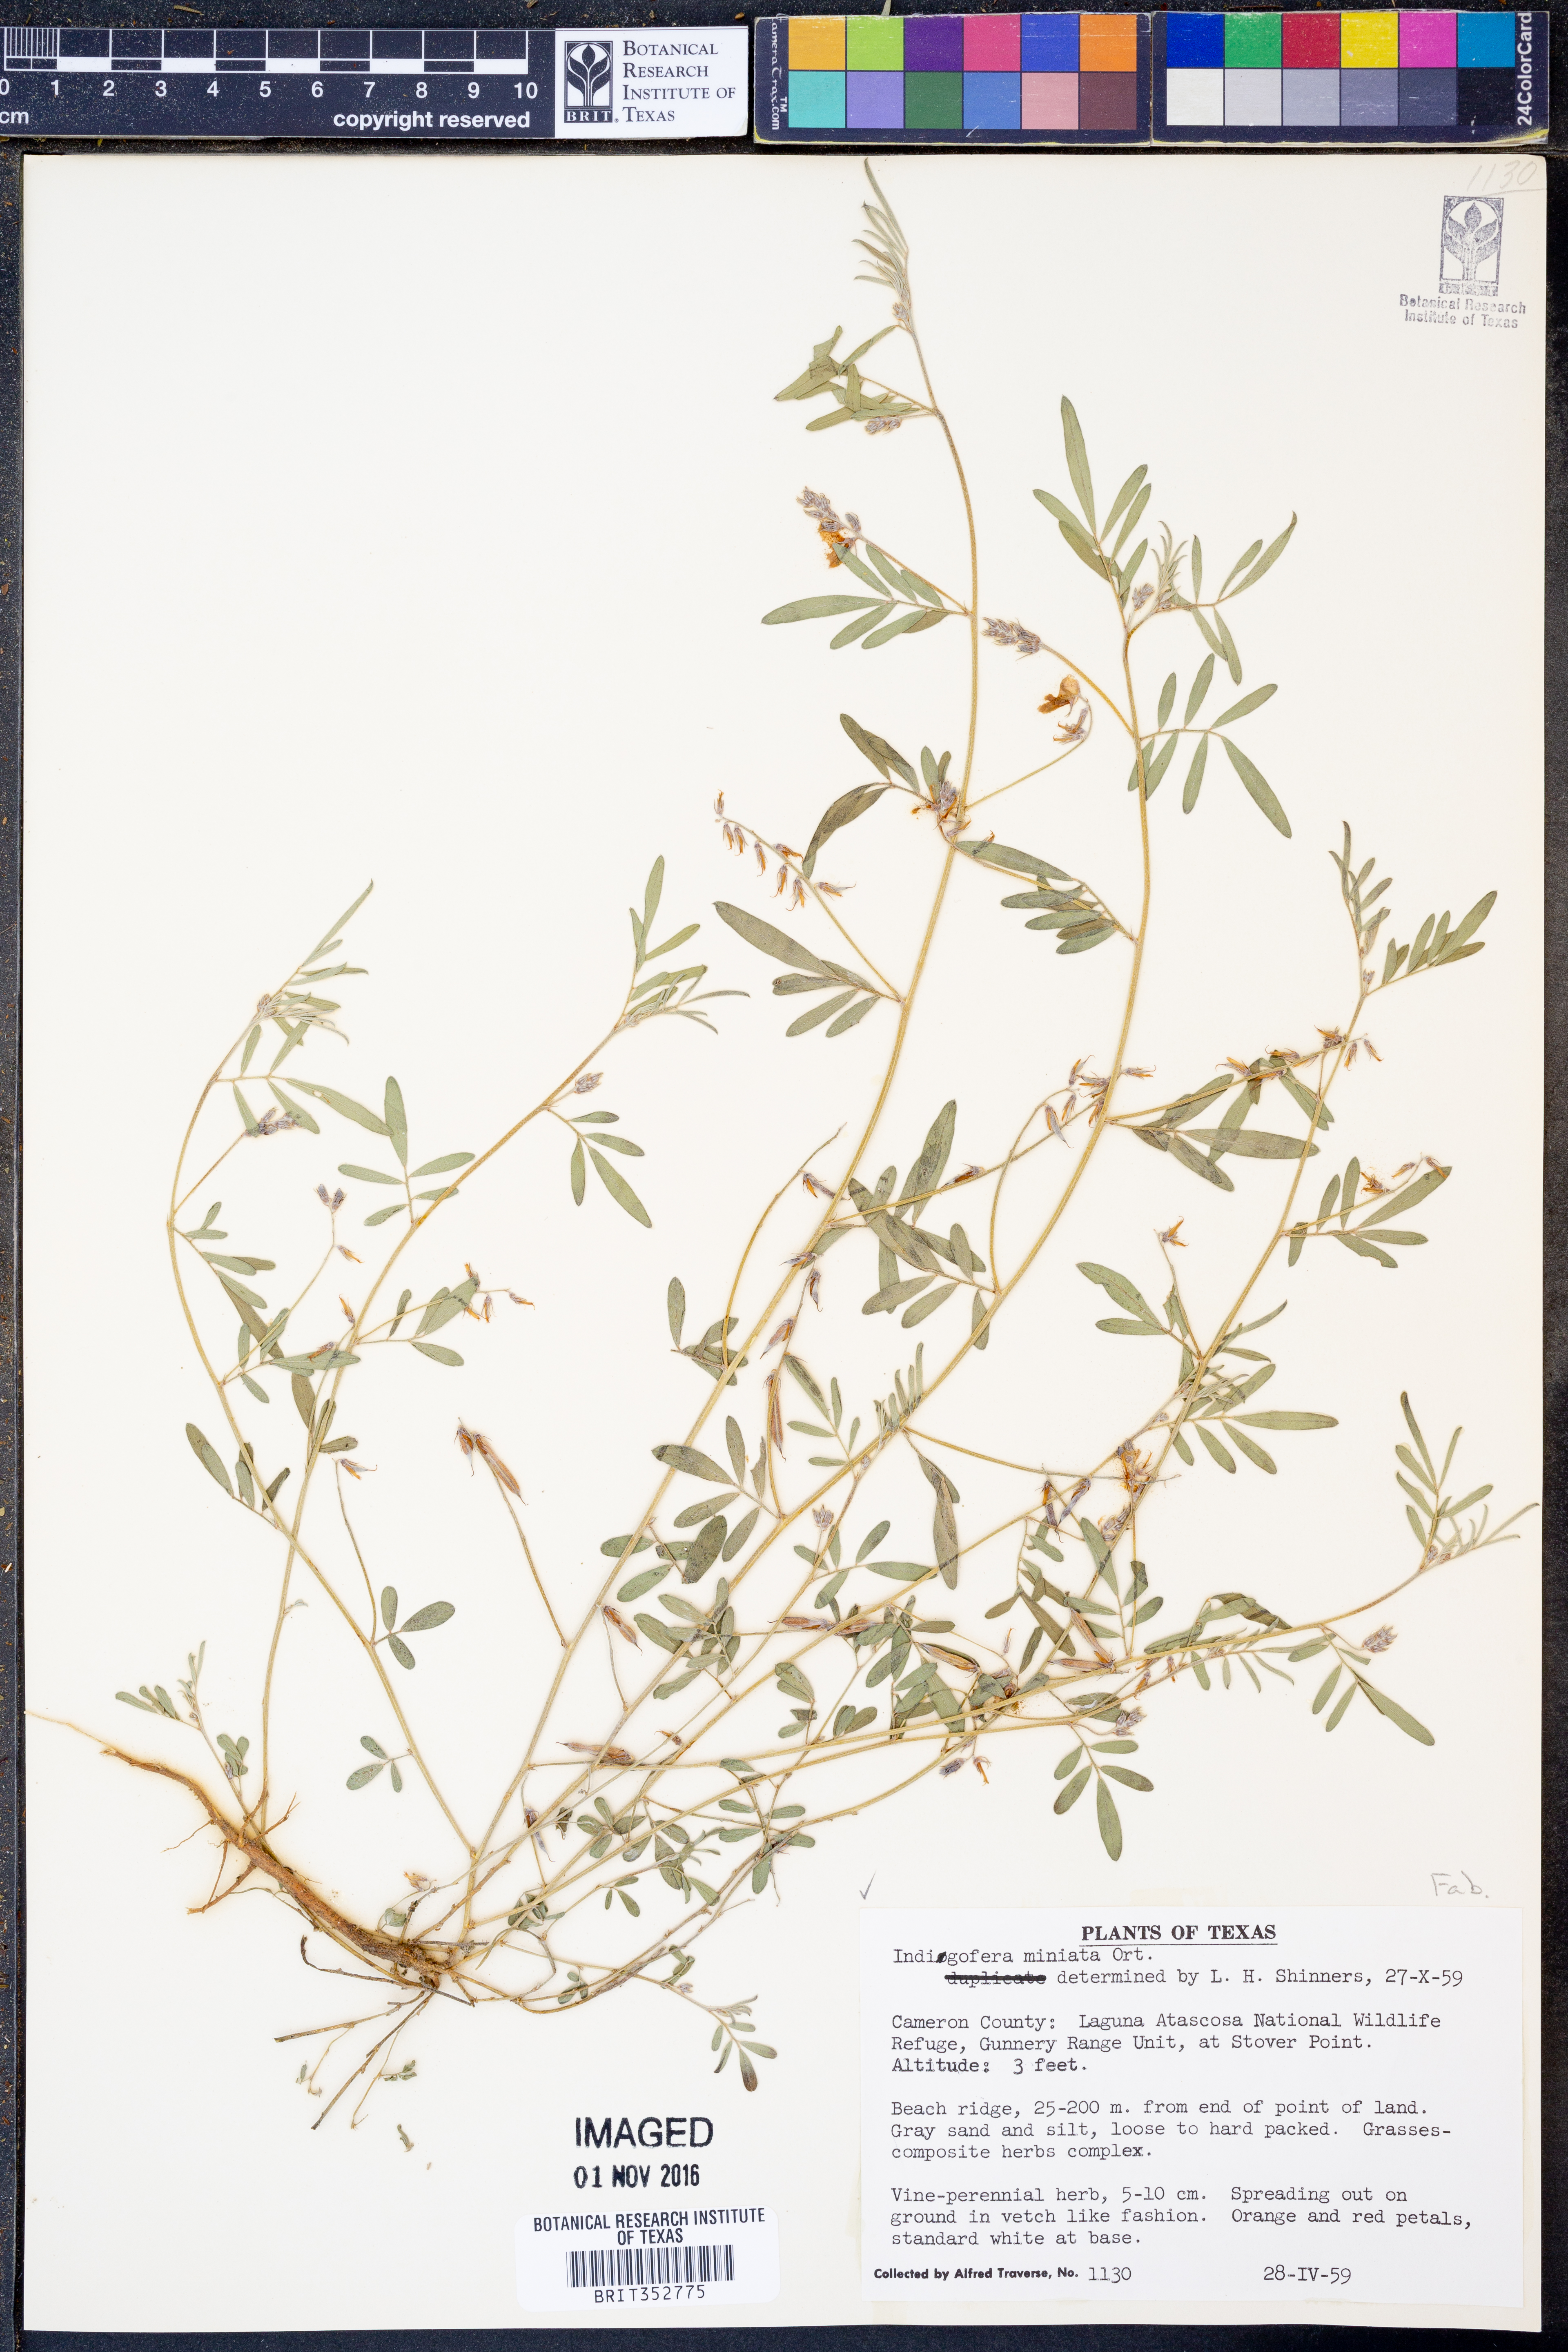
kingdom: Plantae
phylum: Tracheophyta
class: Magnoliopsida
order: Fabales
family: Fabaceae
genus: Indigofera
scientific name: Indigofera miniata
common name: Coast indigo
